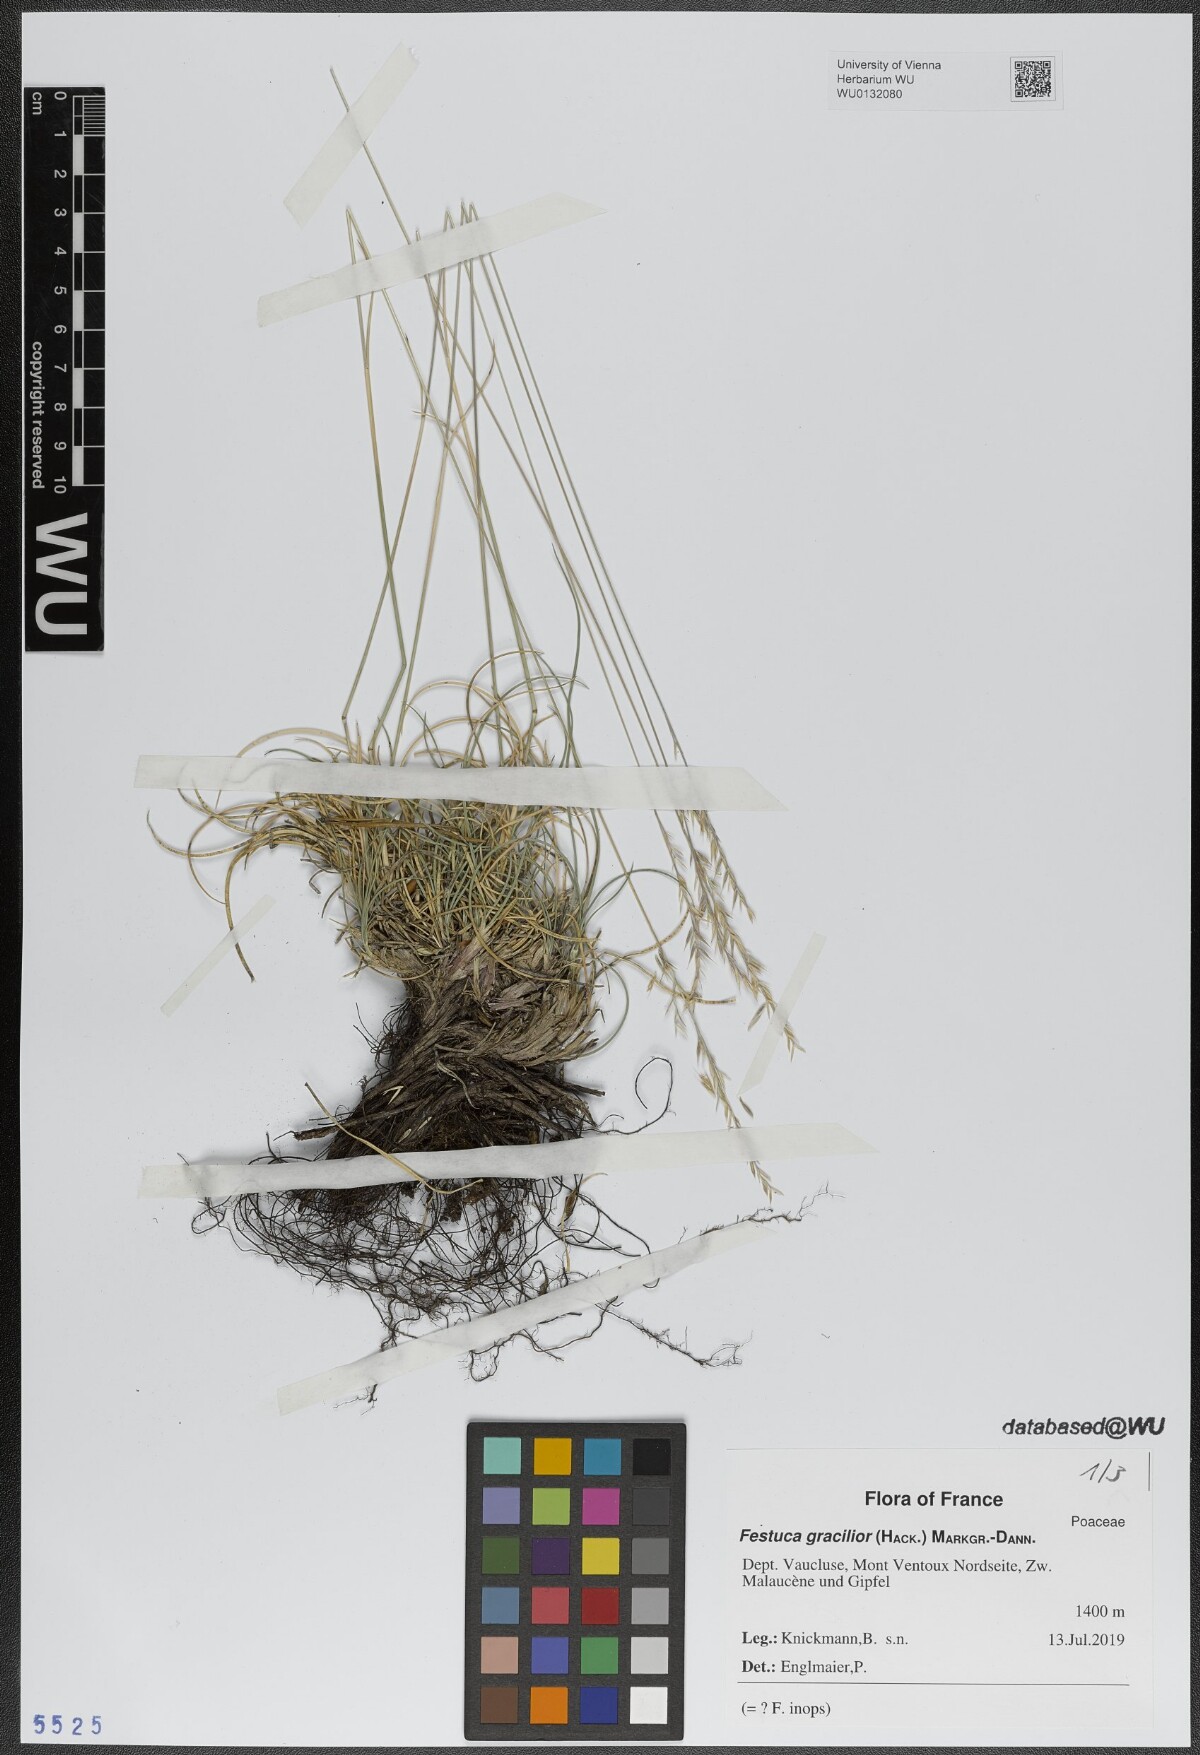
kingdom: Plantae
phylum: Tracheophyta
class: Liliopsida
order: Poales
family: Poaceae
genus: Festuca
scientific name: Festuca gracilior
